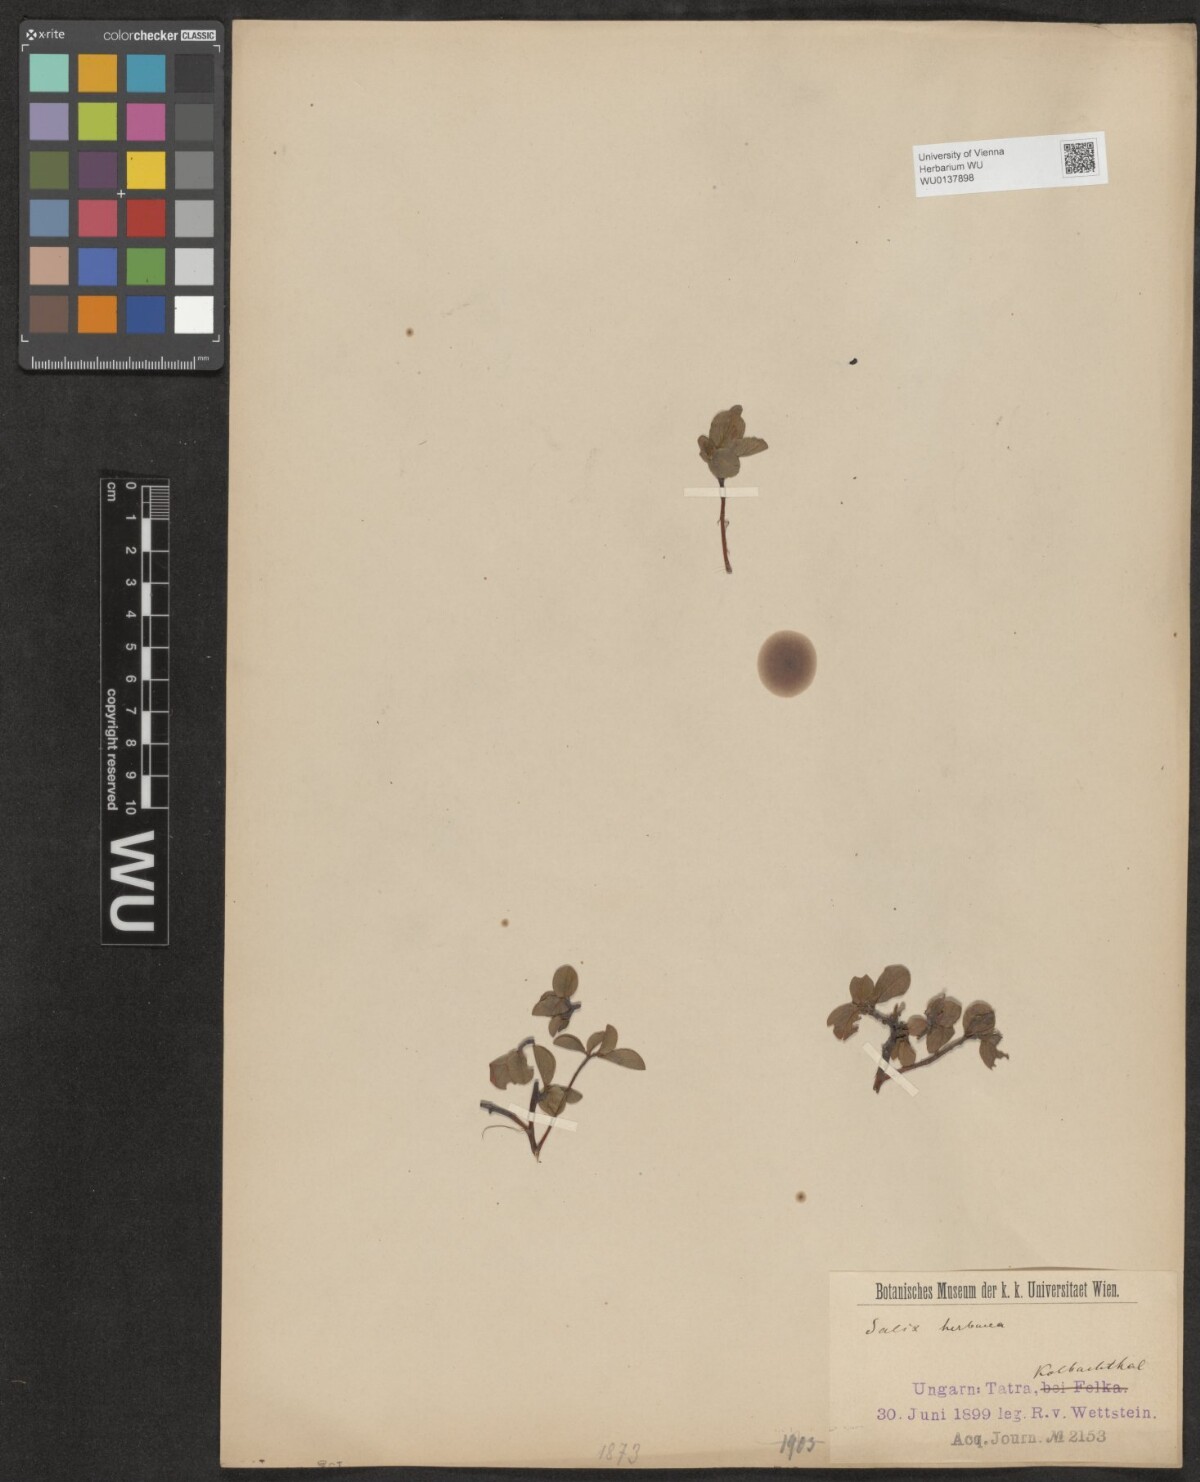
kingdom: Plantae
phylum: Tracheophyta
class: Magnoliopsida
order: Malpighiales
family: Salicaceae
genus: Salix
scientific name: Salix herbacea
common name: Dwarf willow
